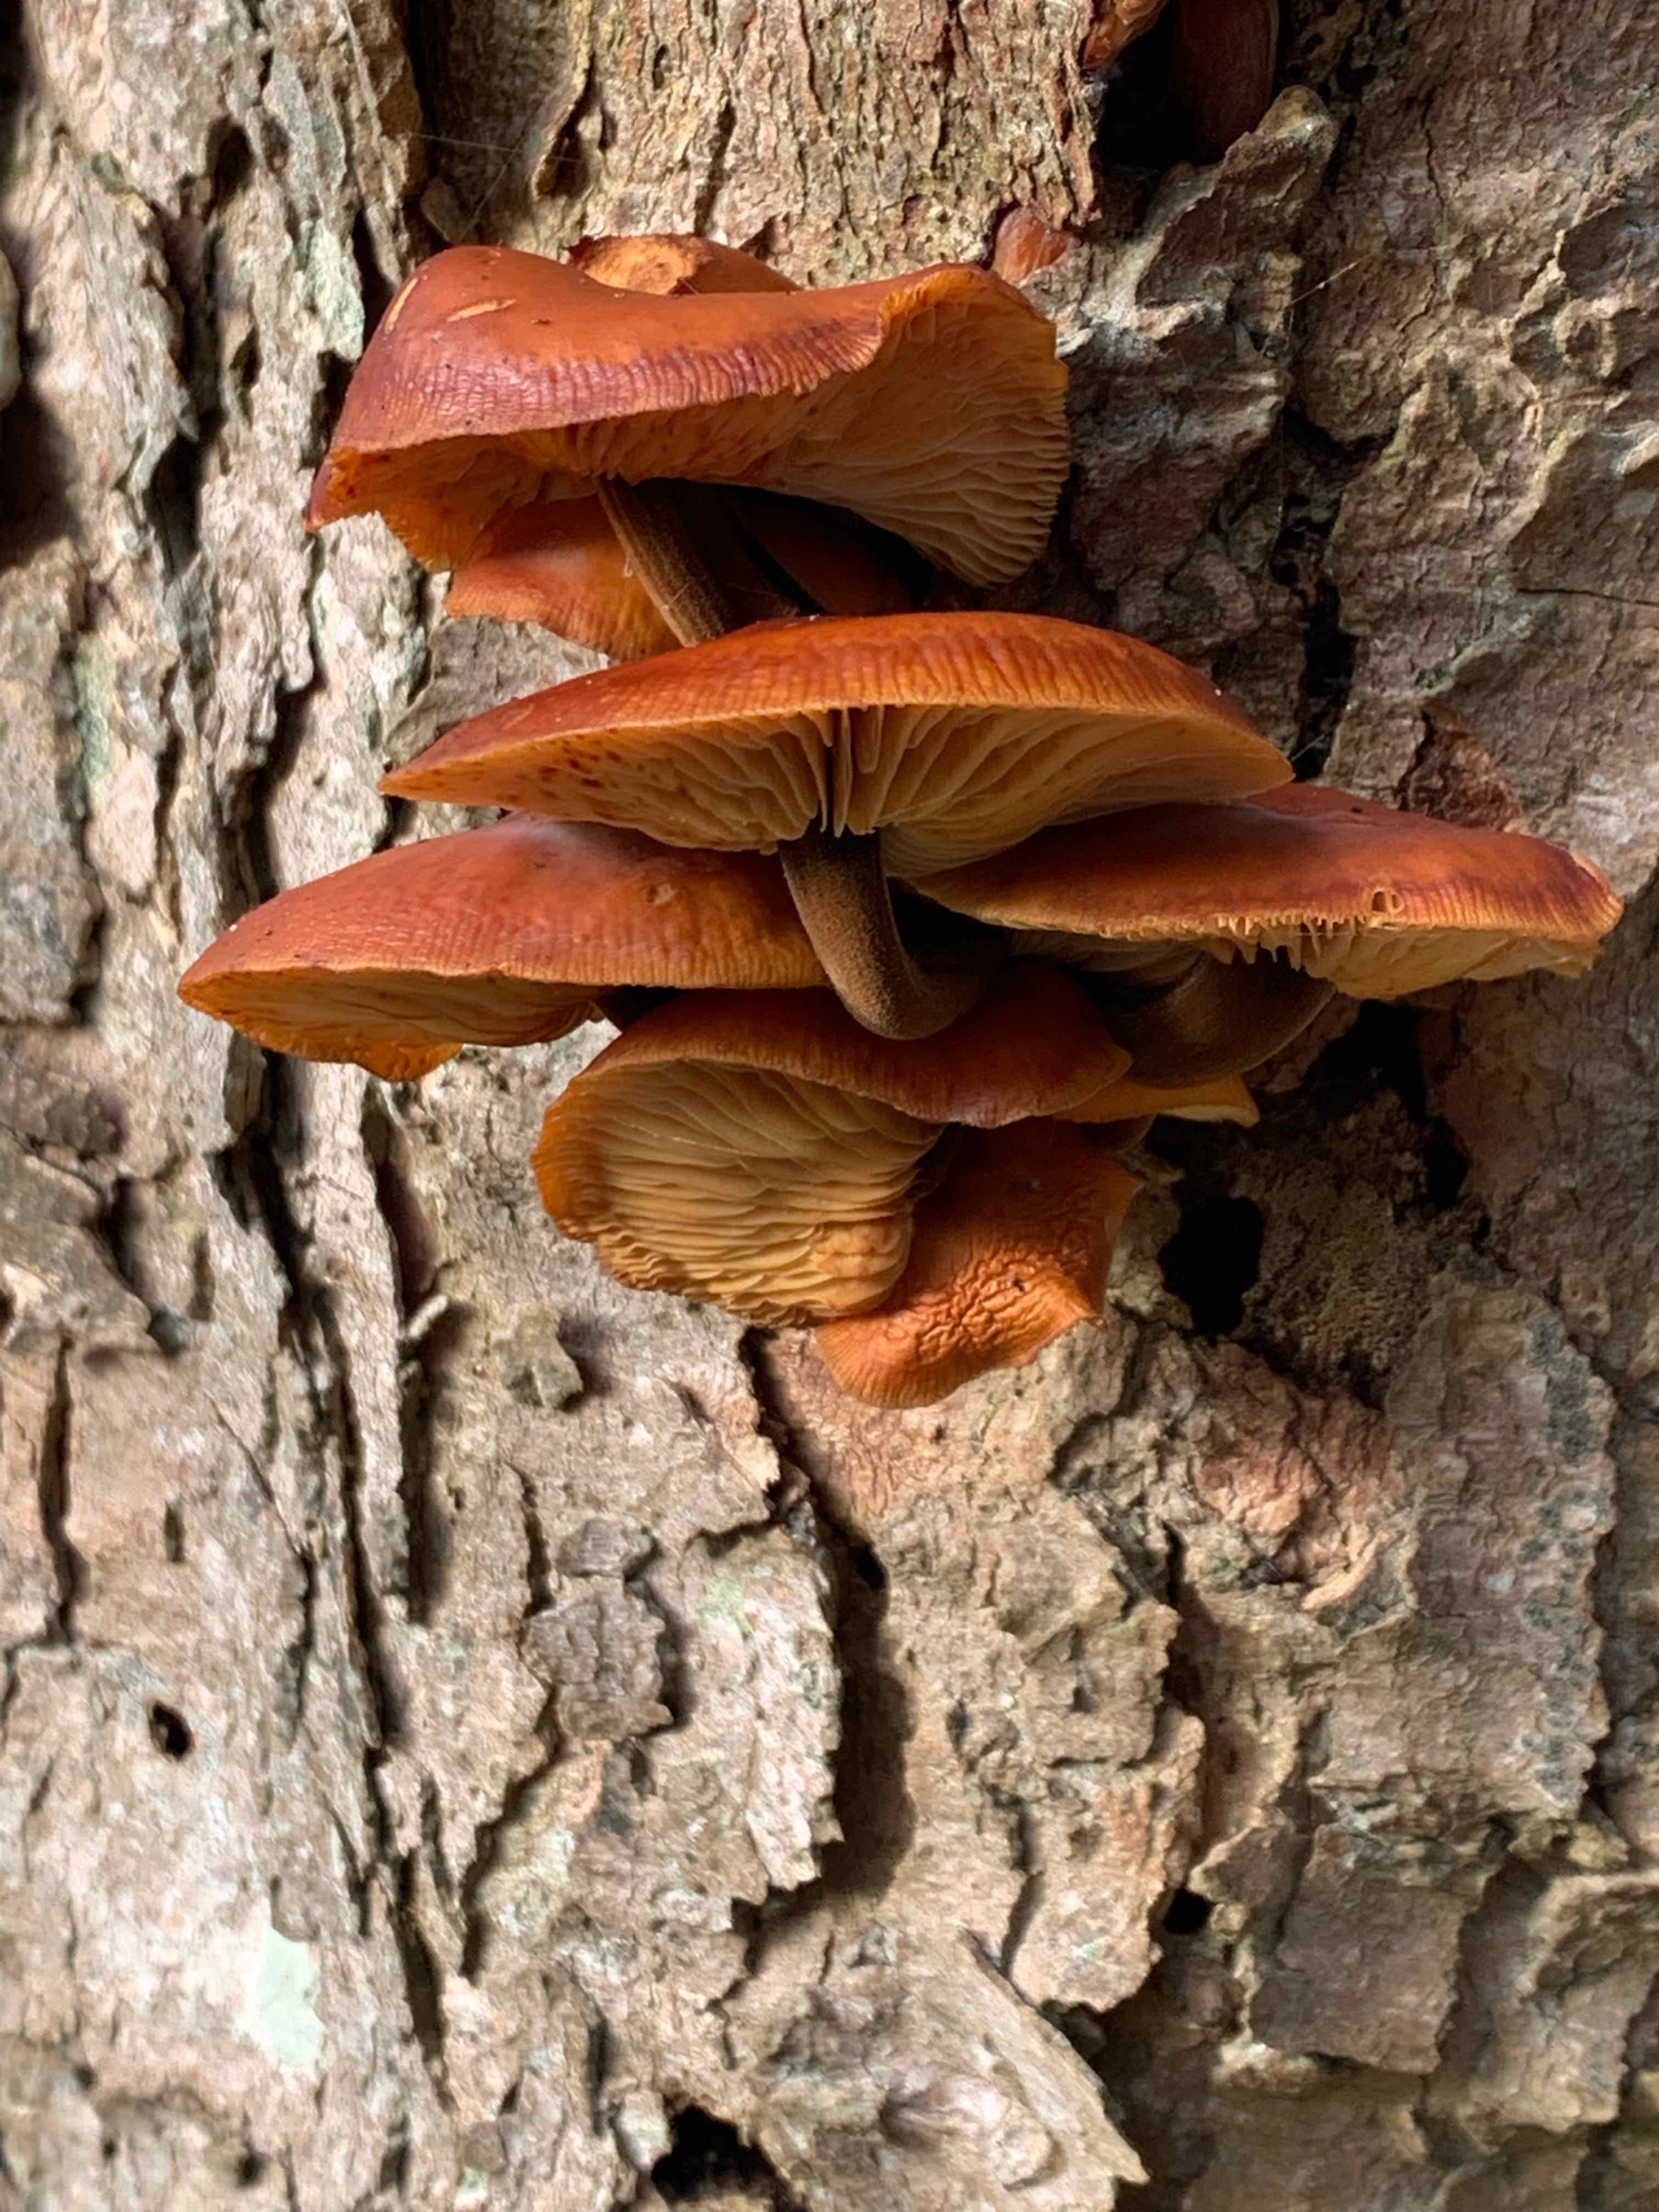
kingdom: Fungi
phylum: Basidiomycota
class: Agaricomycetes
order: Agaricales
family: Physalacriaceae
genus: Flammulina
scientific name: Flammulina velutipes
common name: gul fløjlsfod
